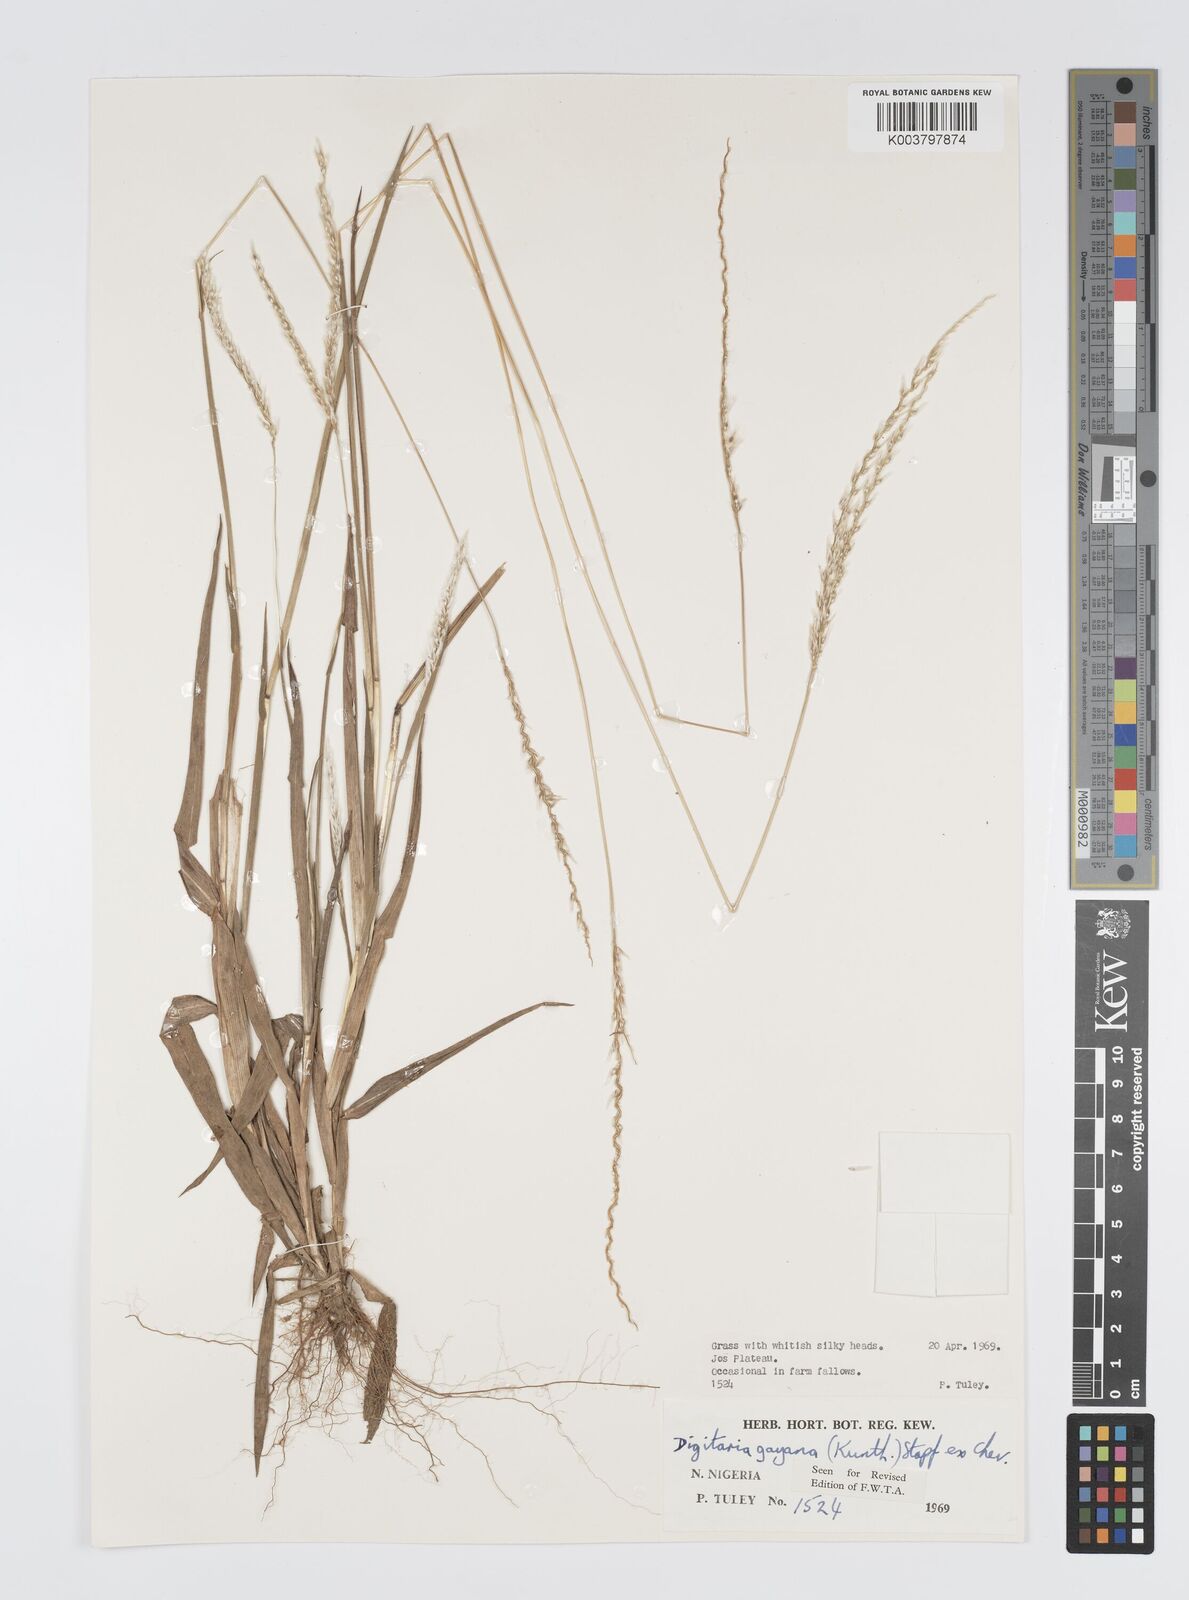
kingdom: Plantae
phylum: Tracheophyta
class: Liliopsida
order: Poales
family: Poaceae
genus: Digitaria
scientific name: Digitaria gayana
